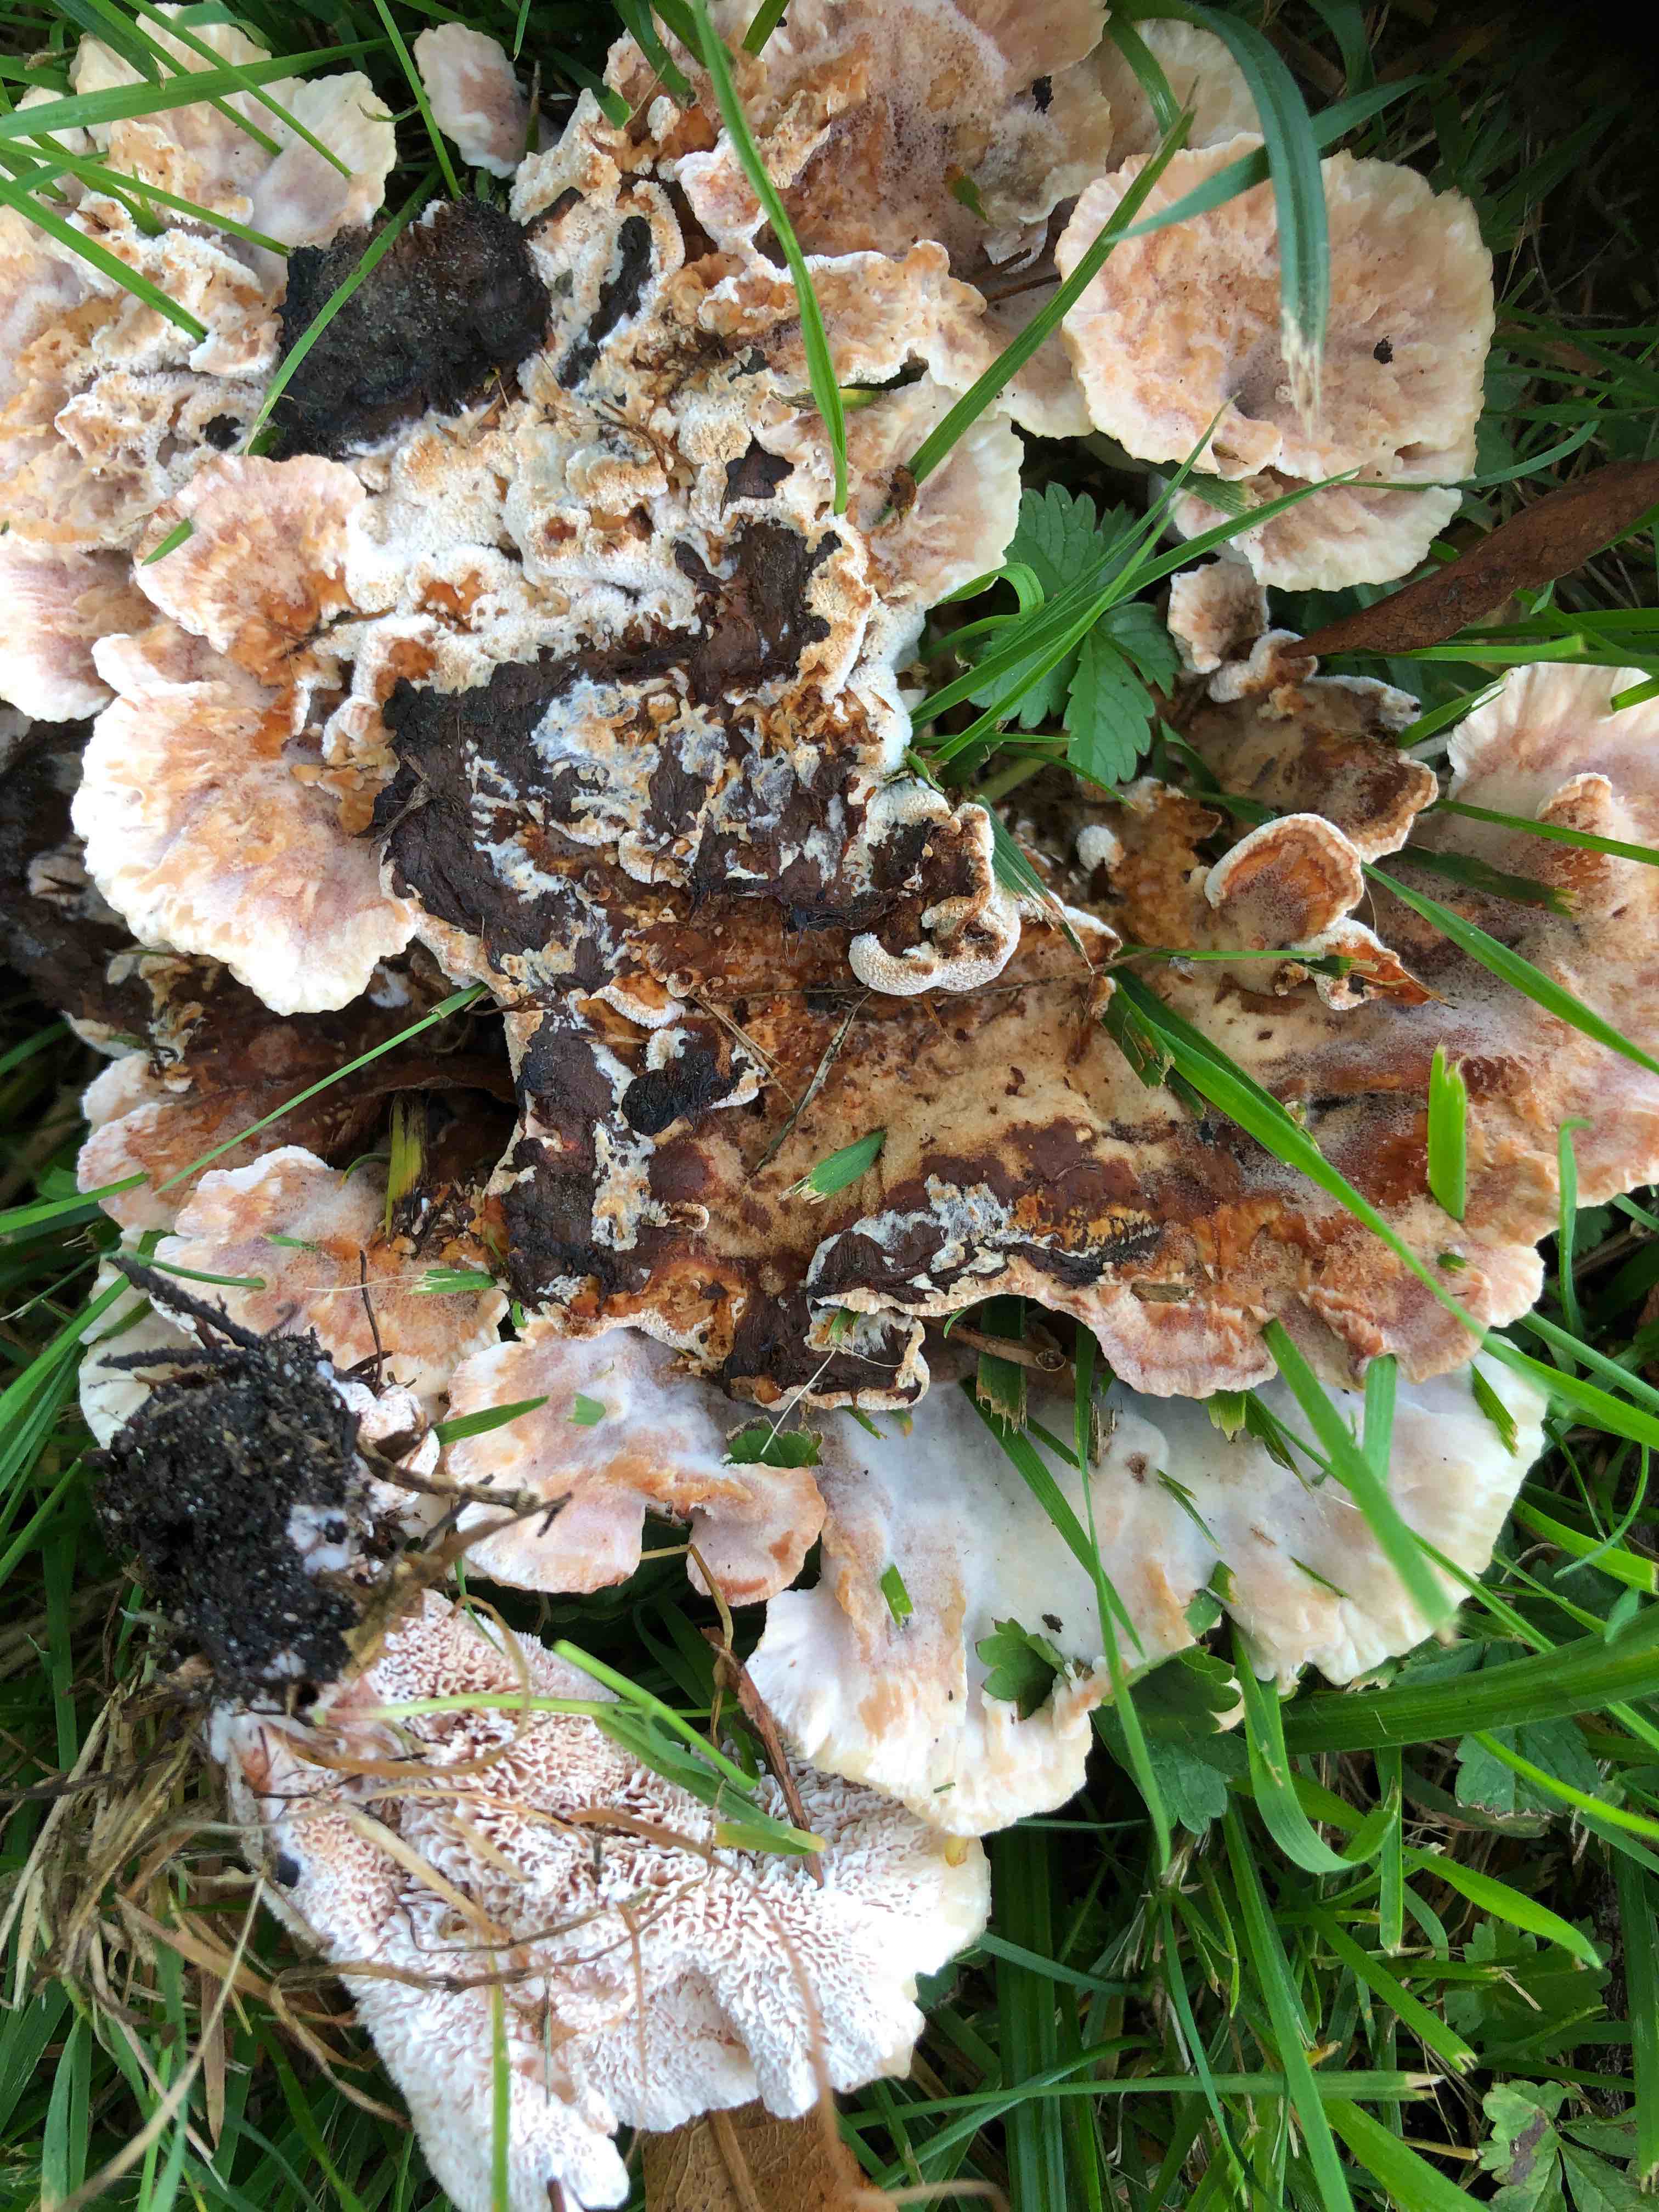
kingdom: Fungi
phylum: Basidiomycota
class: Agaricomycetes
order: Polyporales
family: Podoscyphaceae
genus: Abortiporus
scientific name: Abortiporus biennis
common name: rødmende pjalteporesvamp
